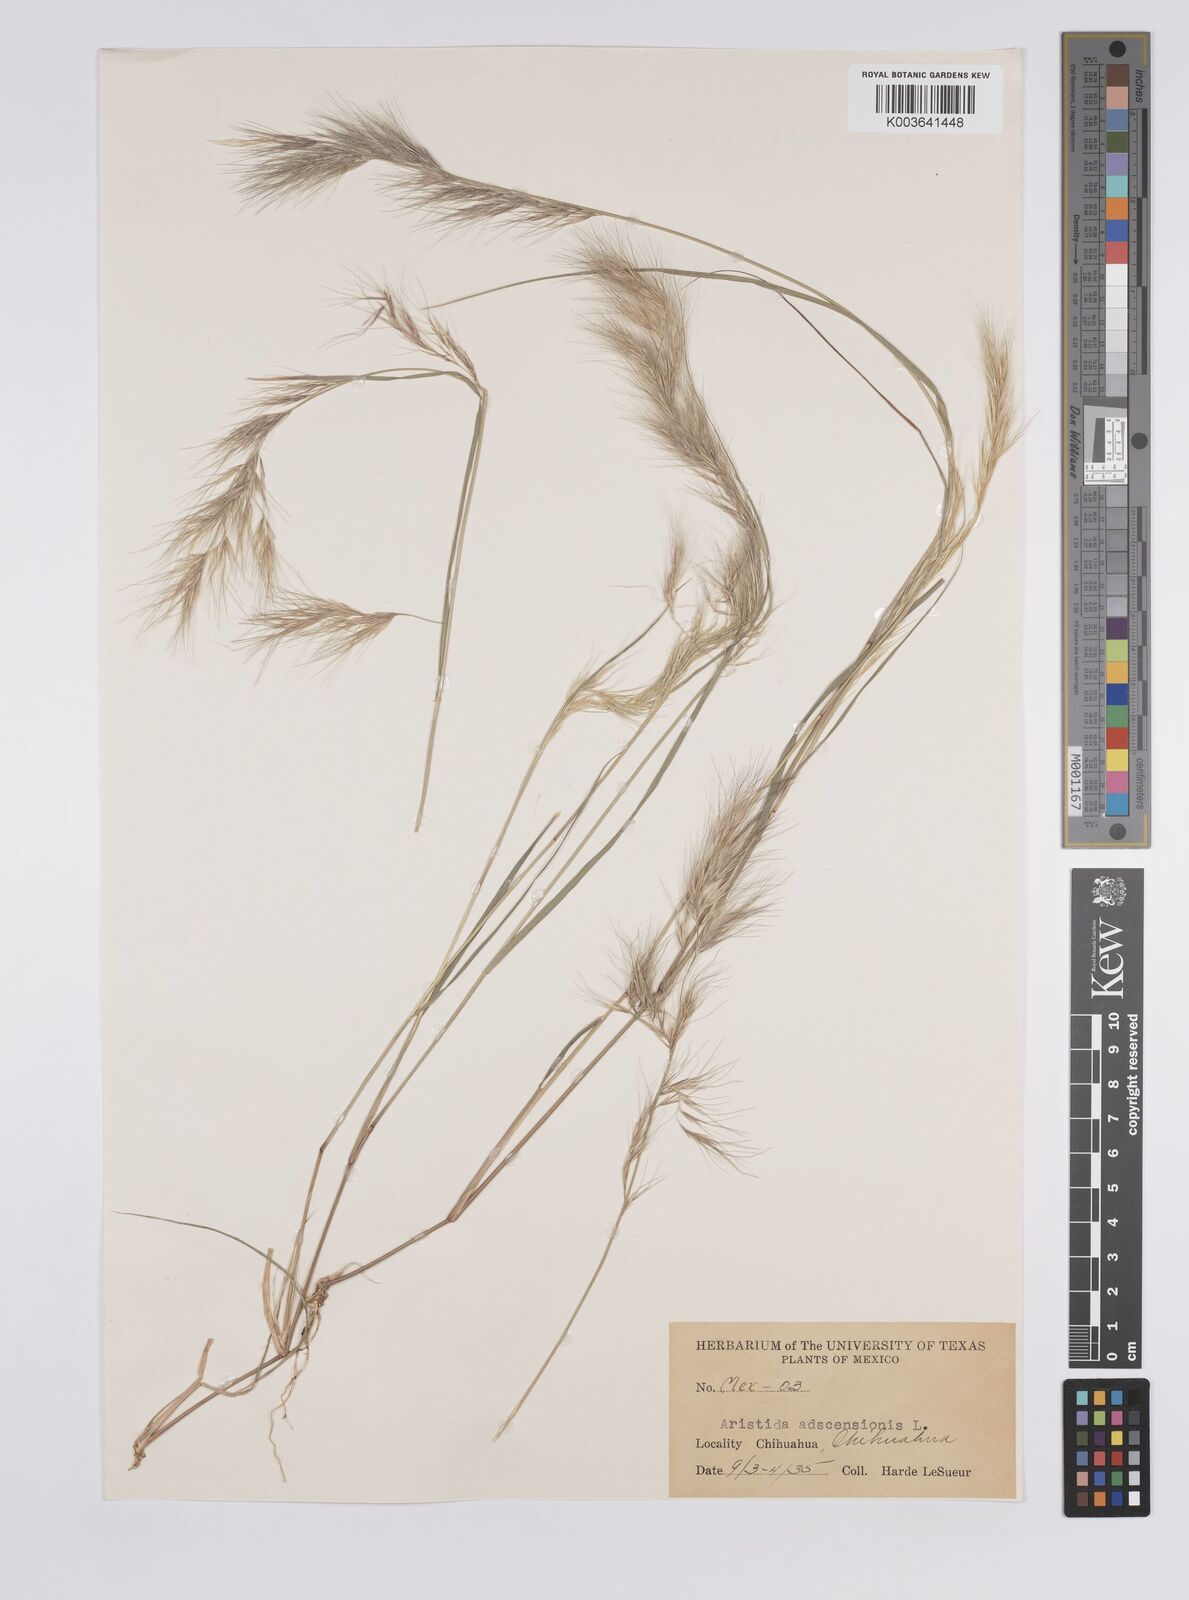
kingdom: Plantae
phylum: Tracheophyta
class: Liliopsida
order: Poales
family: Poaceae
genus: Aristida
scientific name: Aristida adscensionis
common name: Sixweeks threeawn
